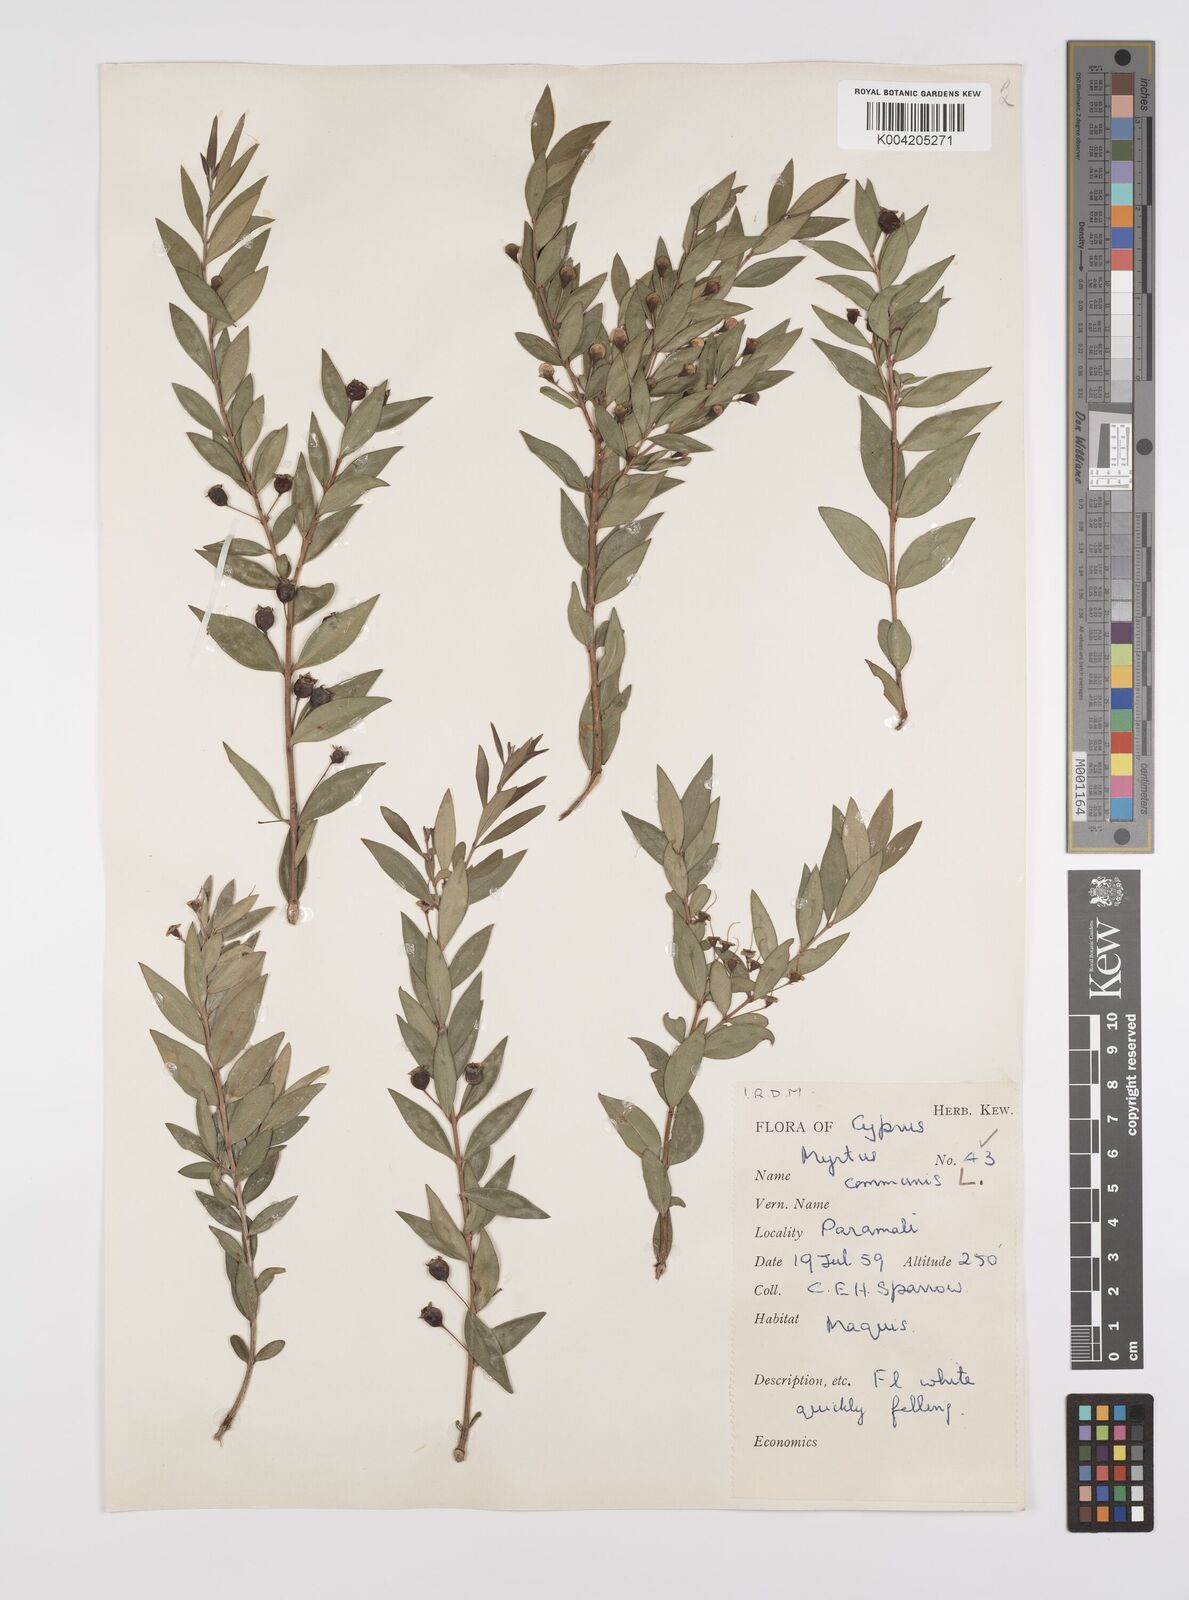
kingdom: Plantae
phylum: Tracheophyta
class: Magnoliopsida
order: Myrtales
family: Myrtaceae
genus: Myrtus
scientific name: Myrtus communis
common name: Myrtle
